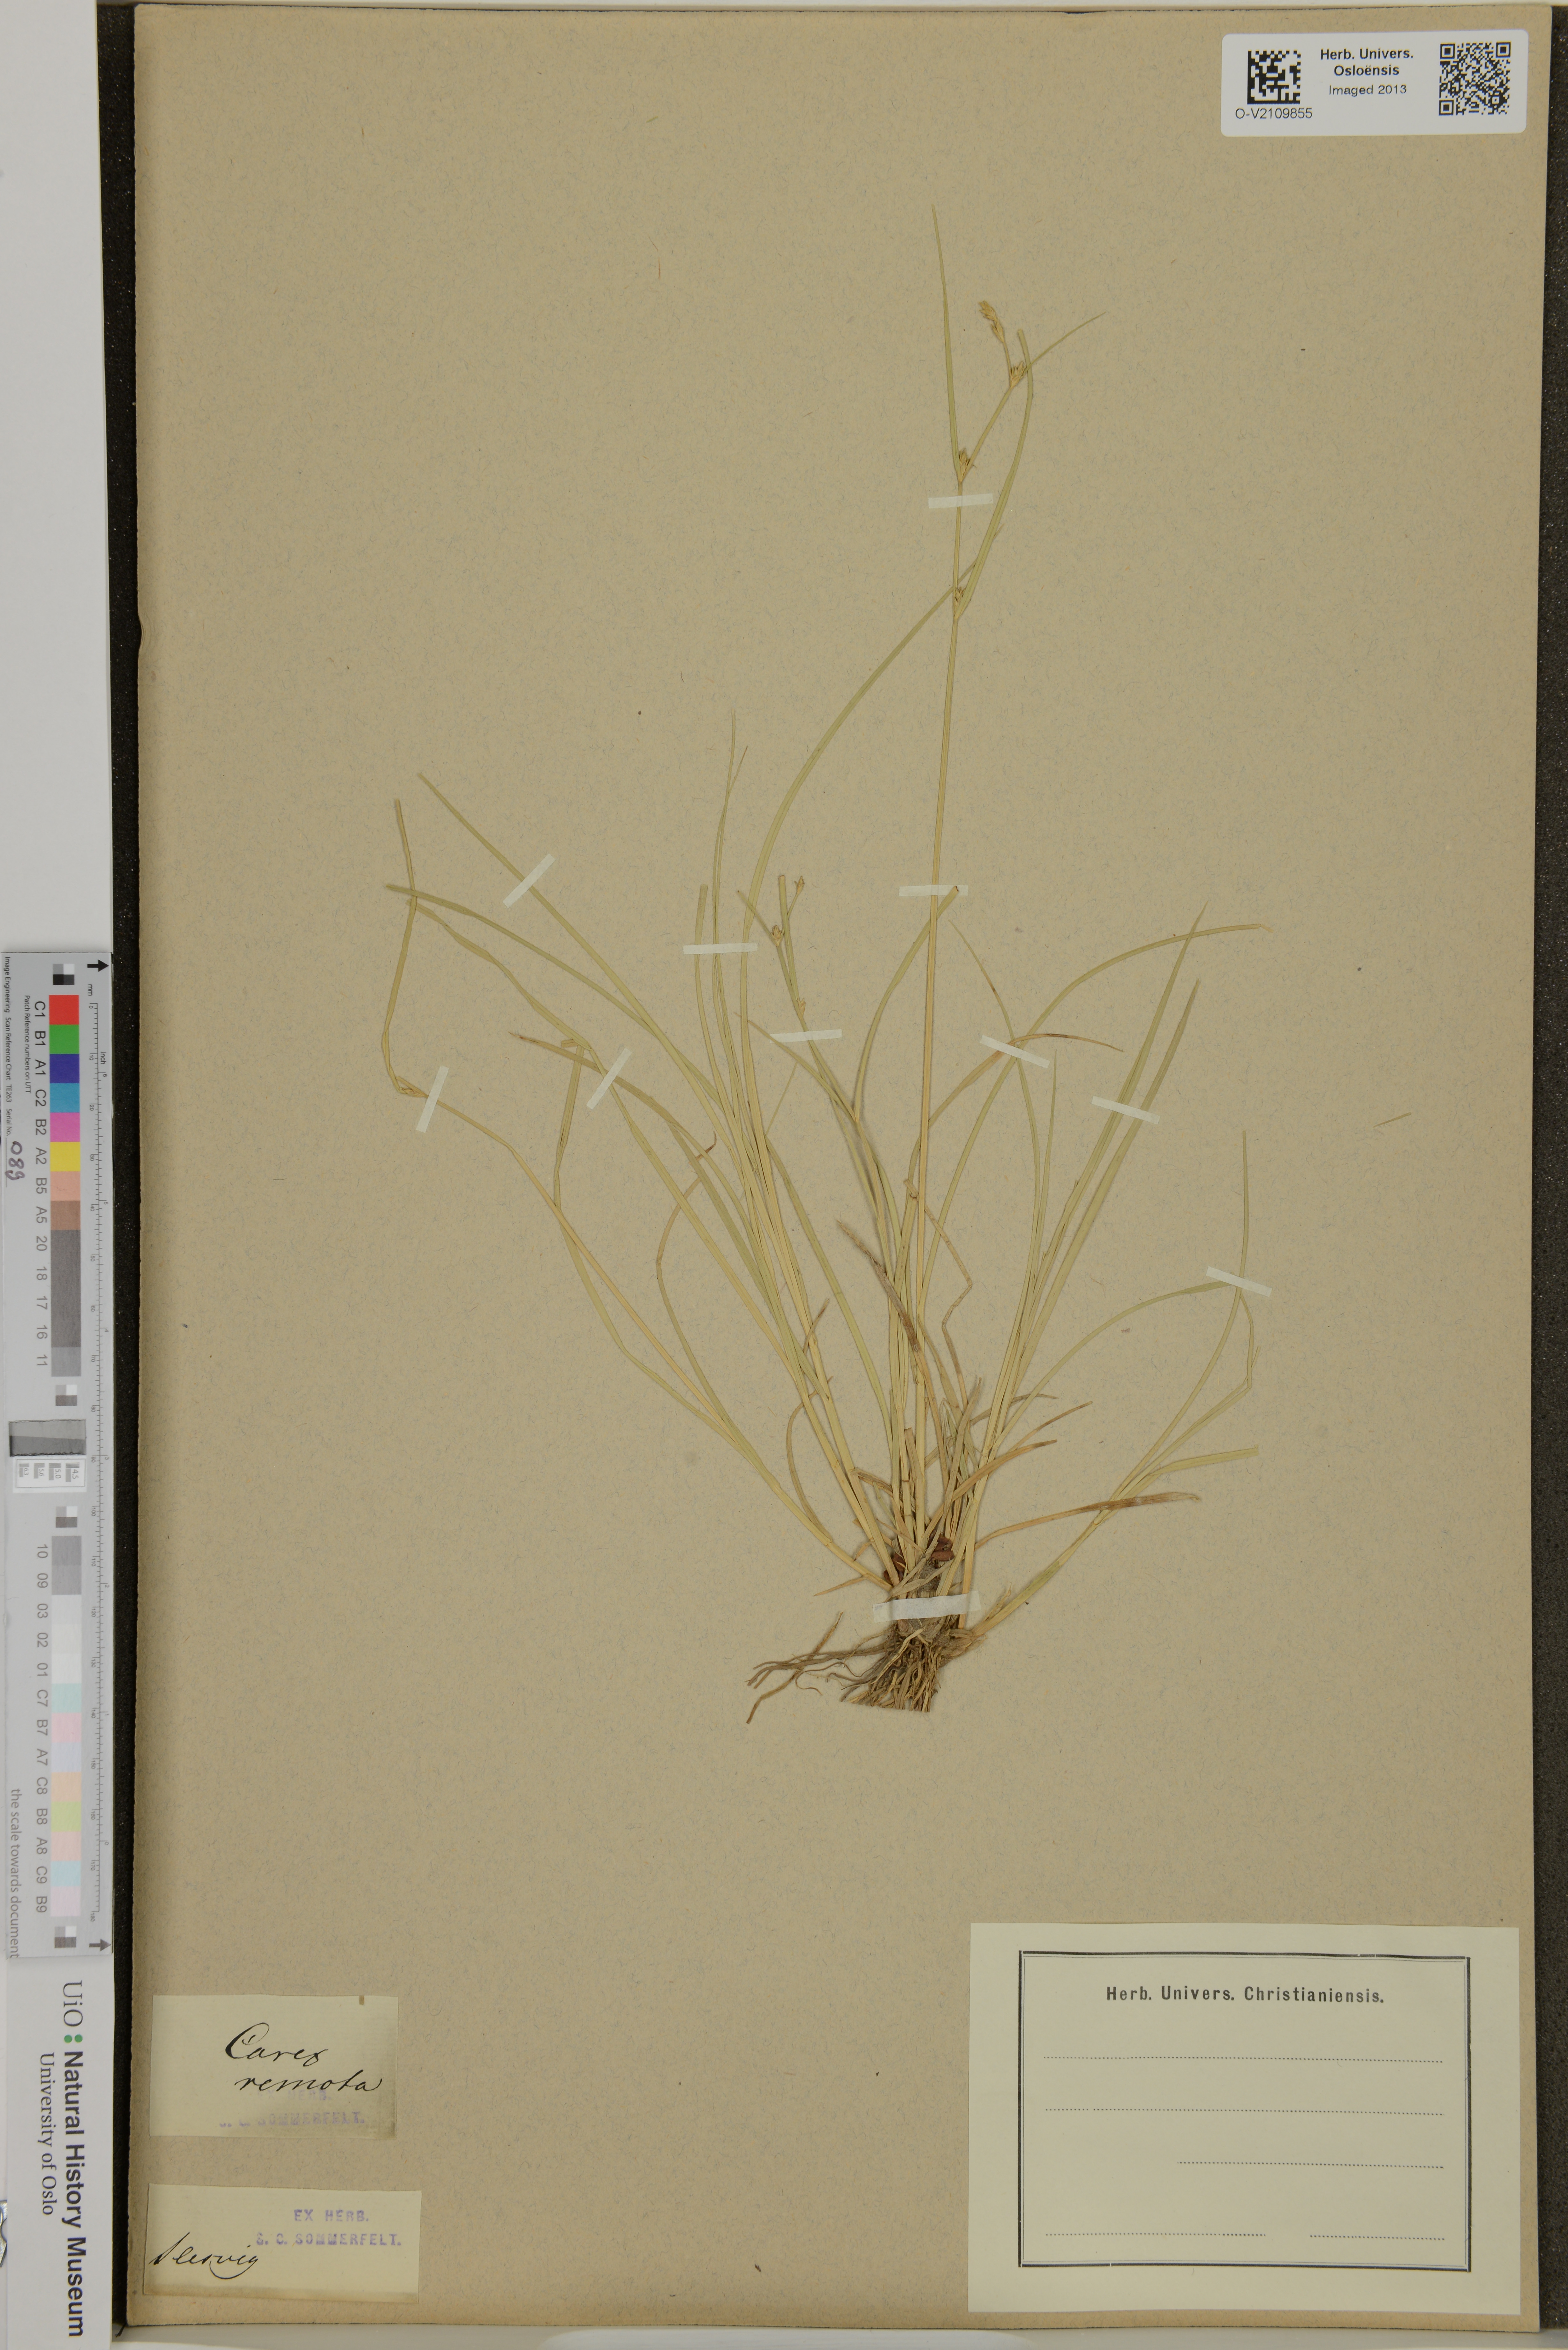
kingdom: Plantae
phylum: Tracheophyta
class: Liliopsida
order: Poales
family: Cyperaceae
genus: Carex
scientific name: Carex remota
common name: Remote sedge
